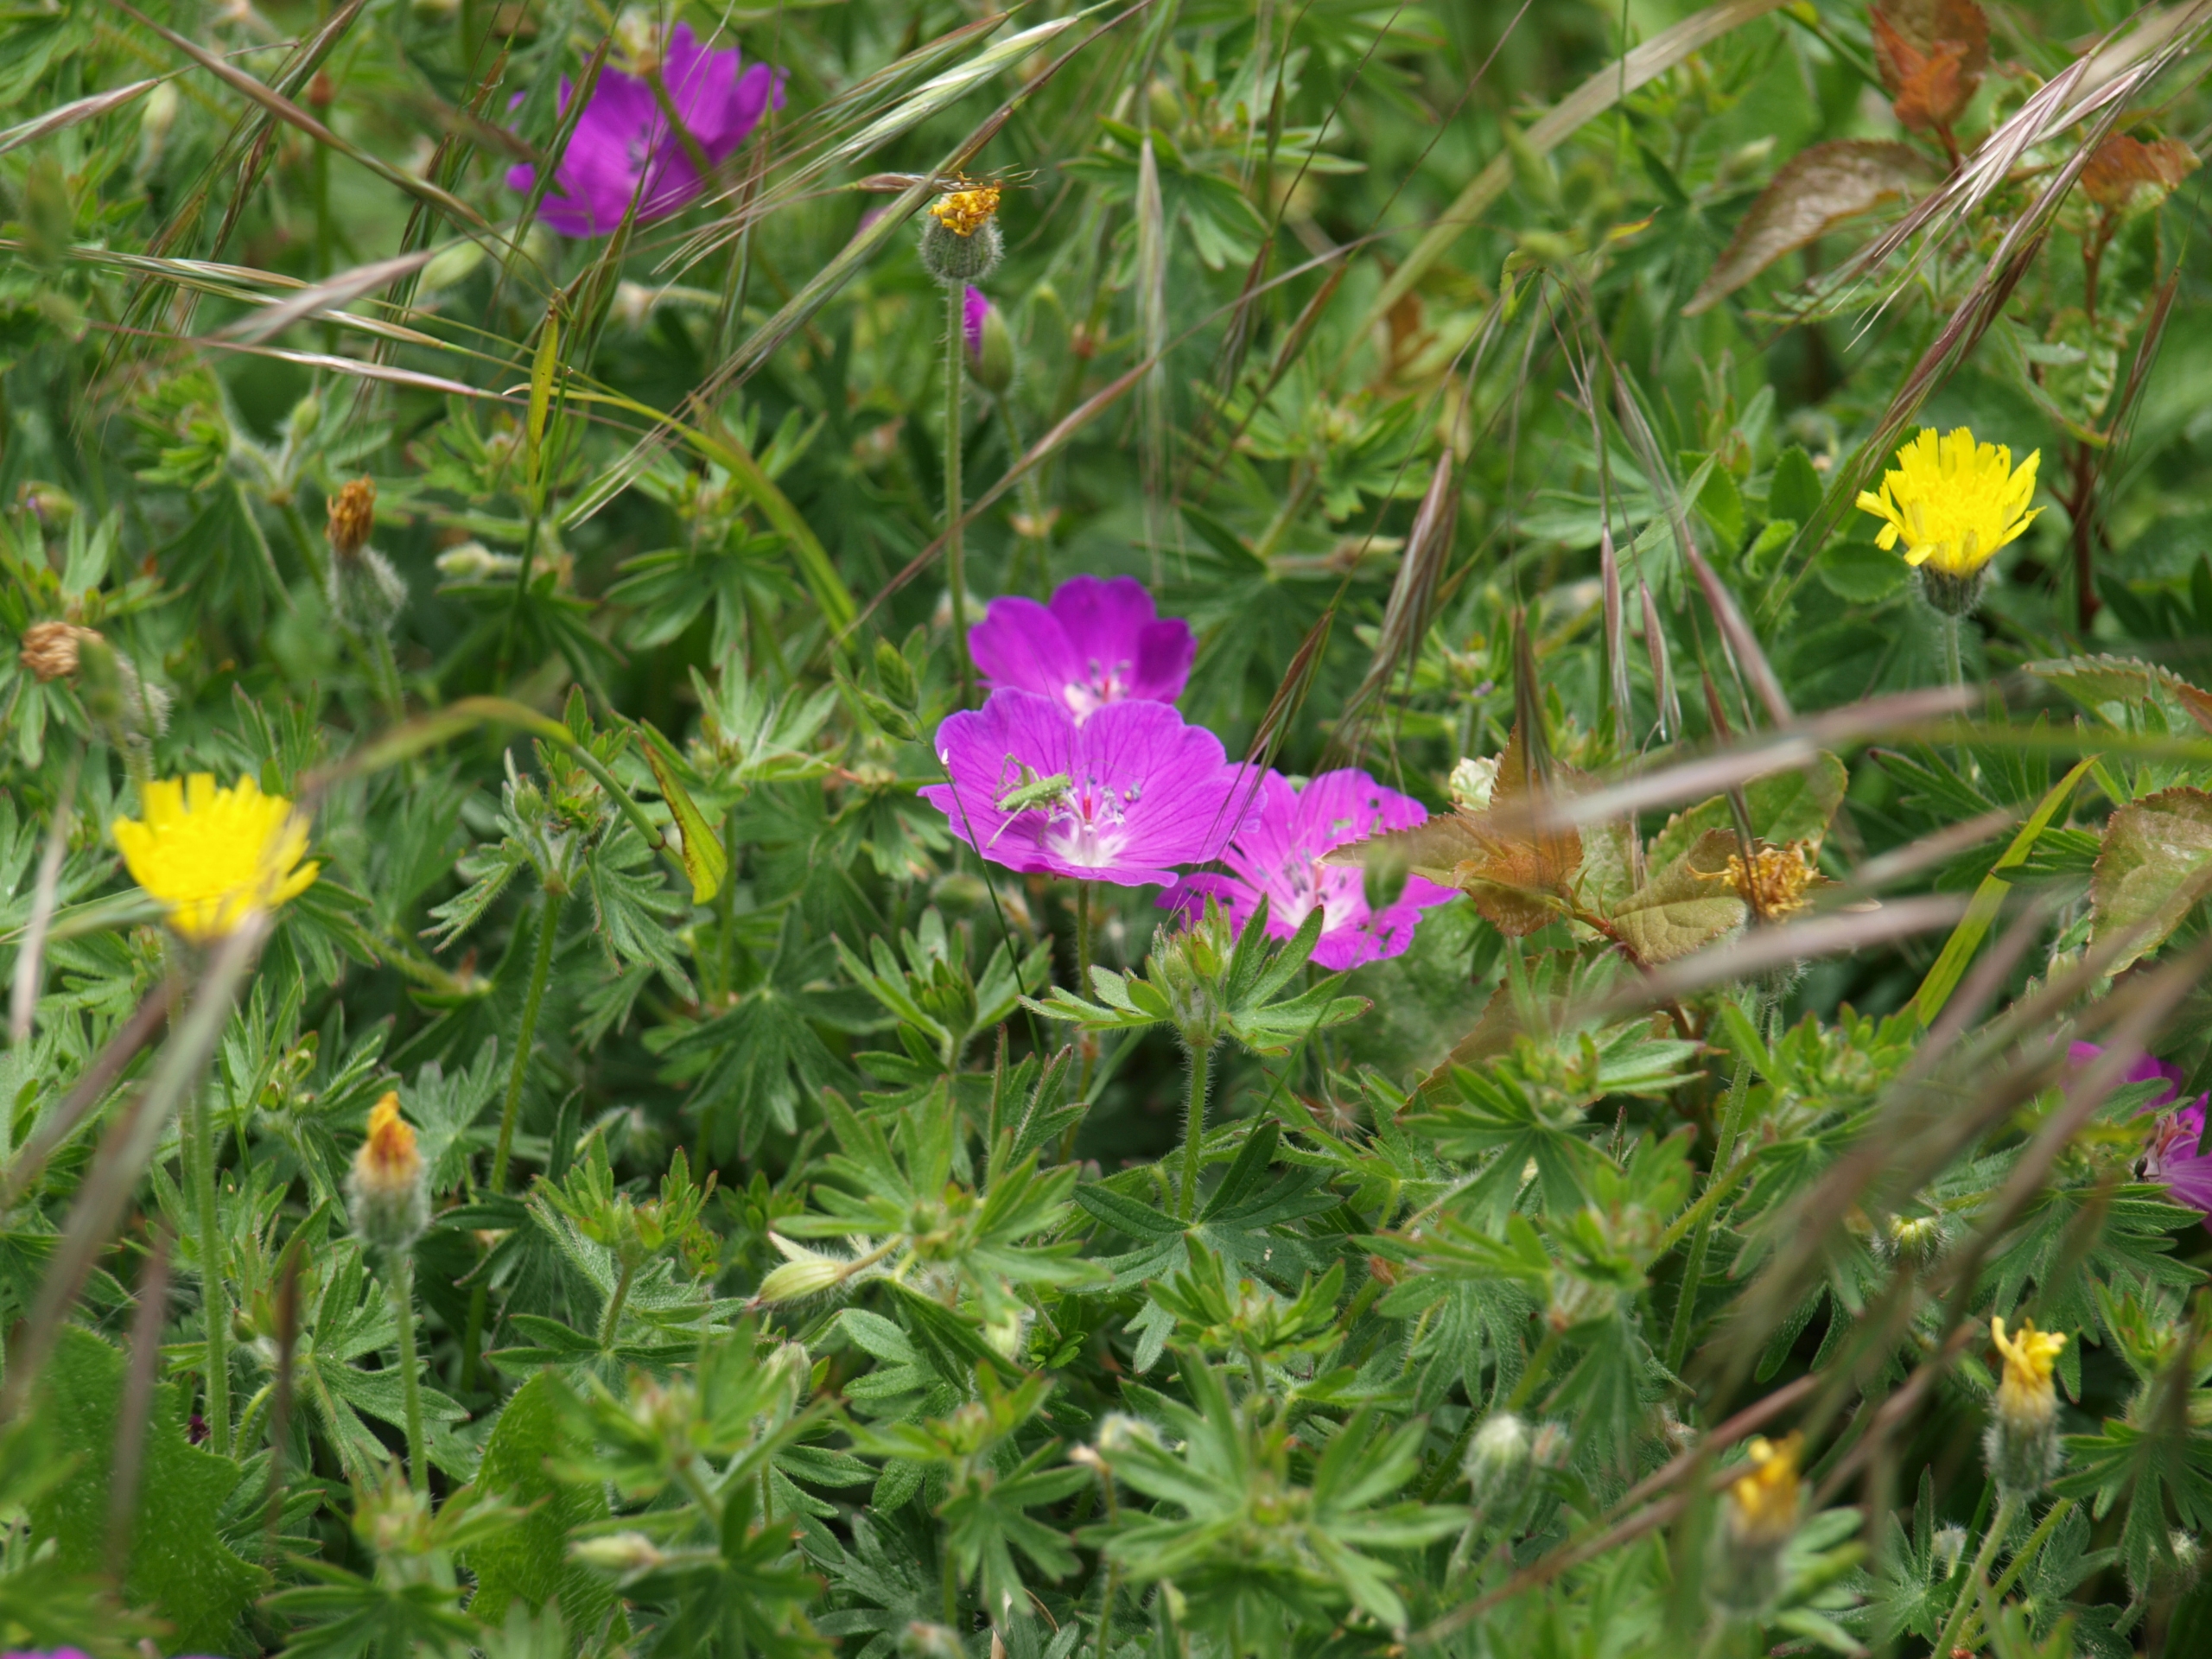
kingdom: Plantae
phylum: Tracheophyta
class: Magnoliopsida
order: Geraniales
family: Geraniaceae
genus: Geranium
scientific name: Geranium sanguineum
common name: Blodrød storkenæb
